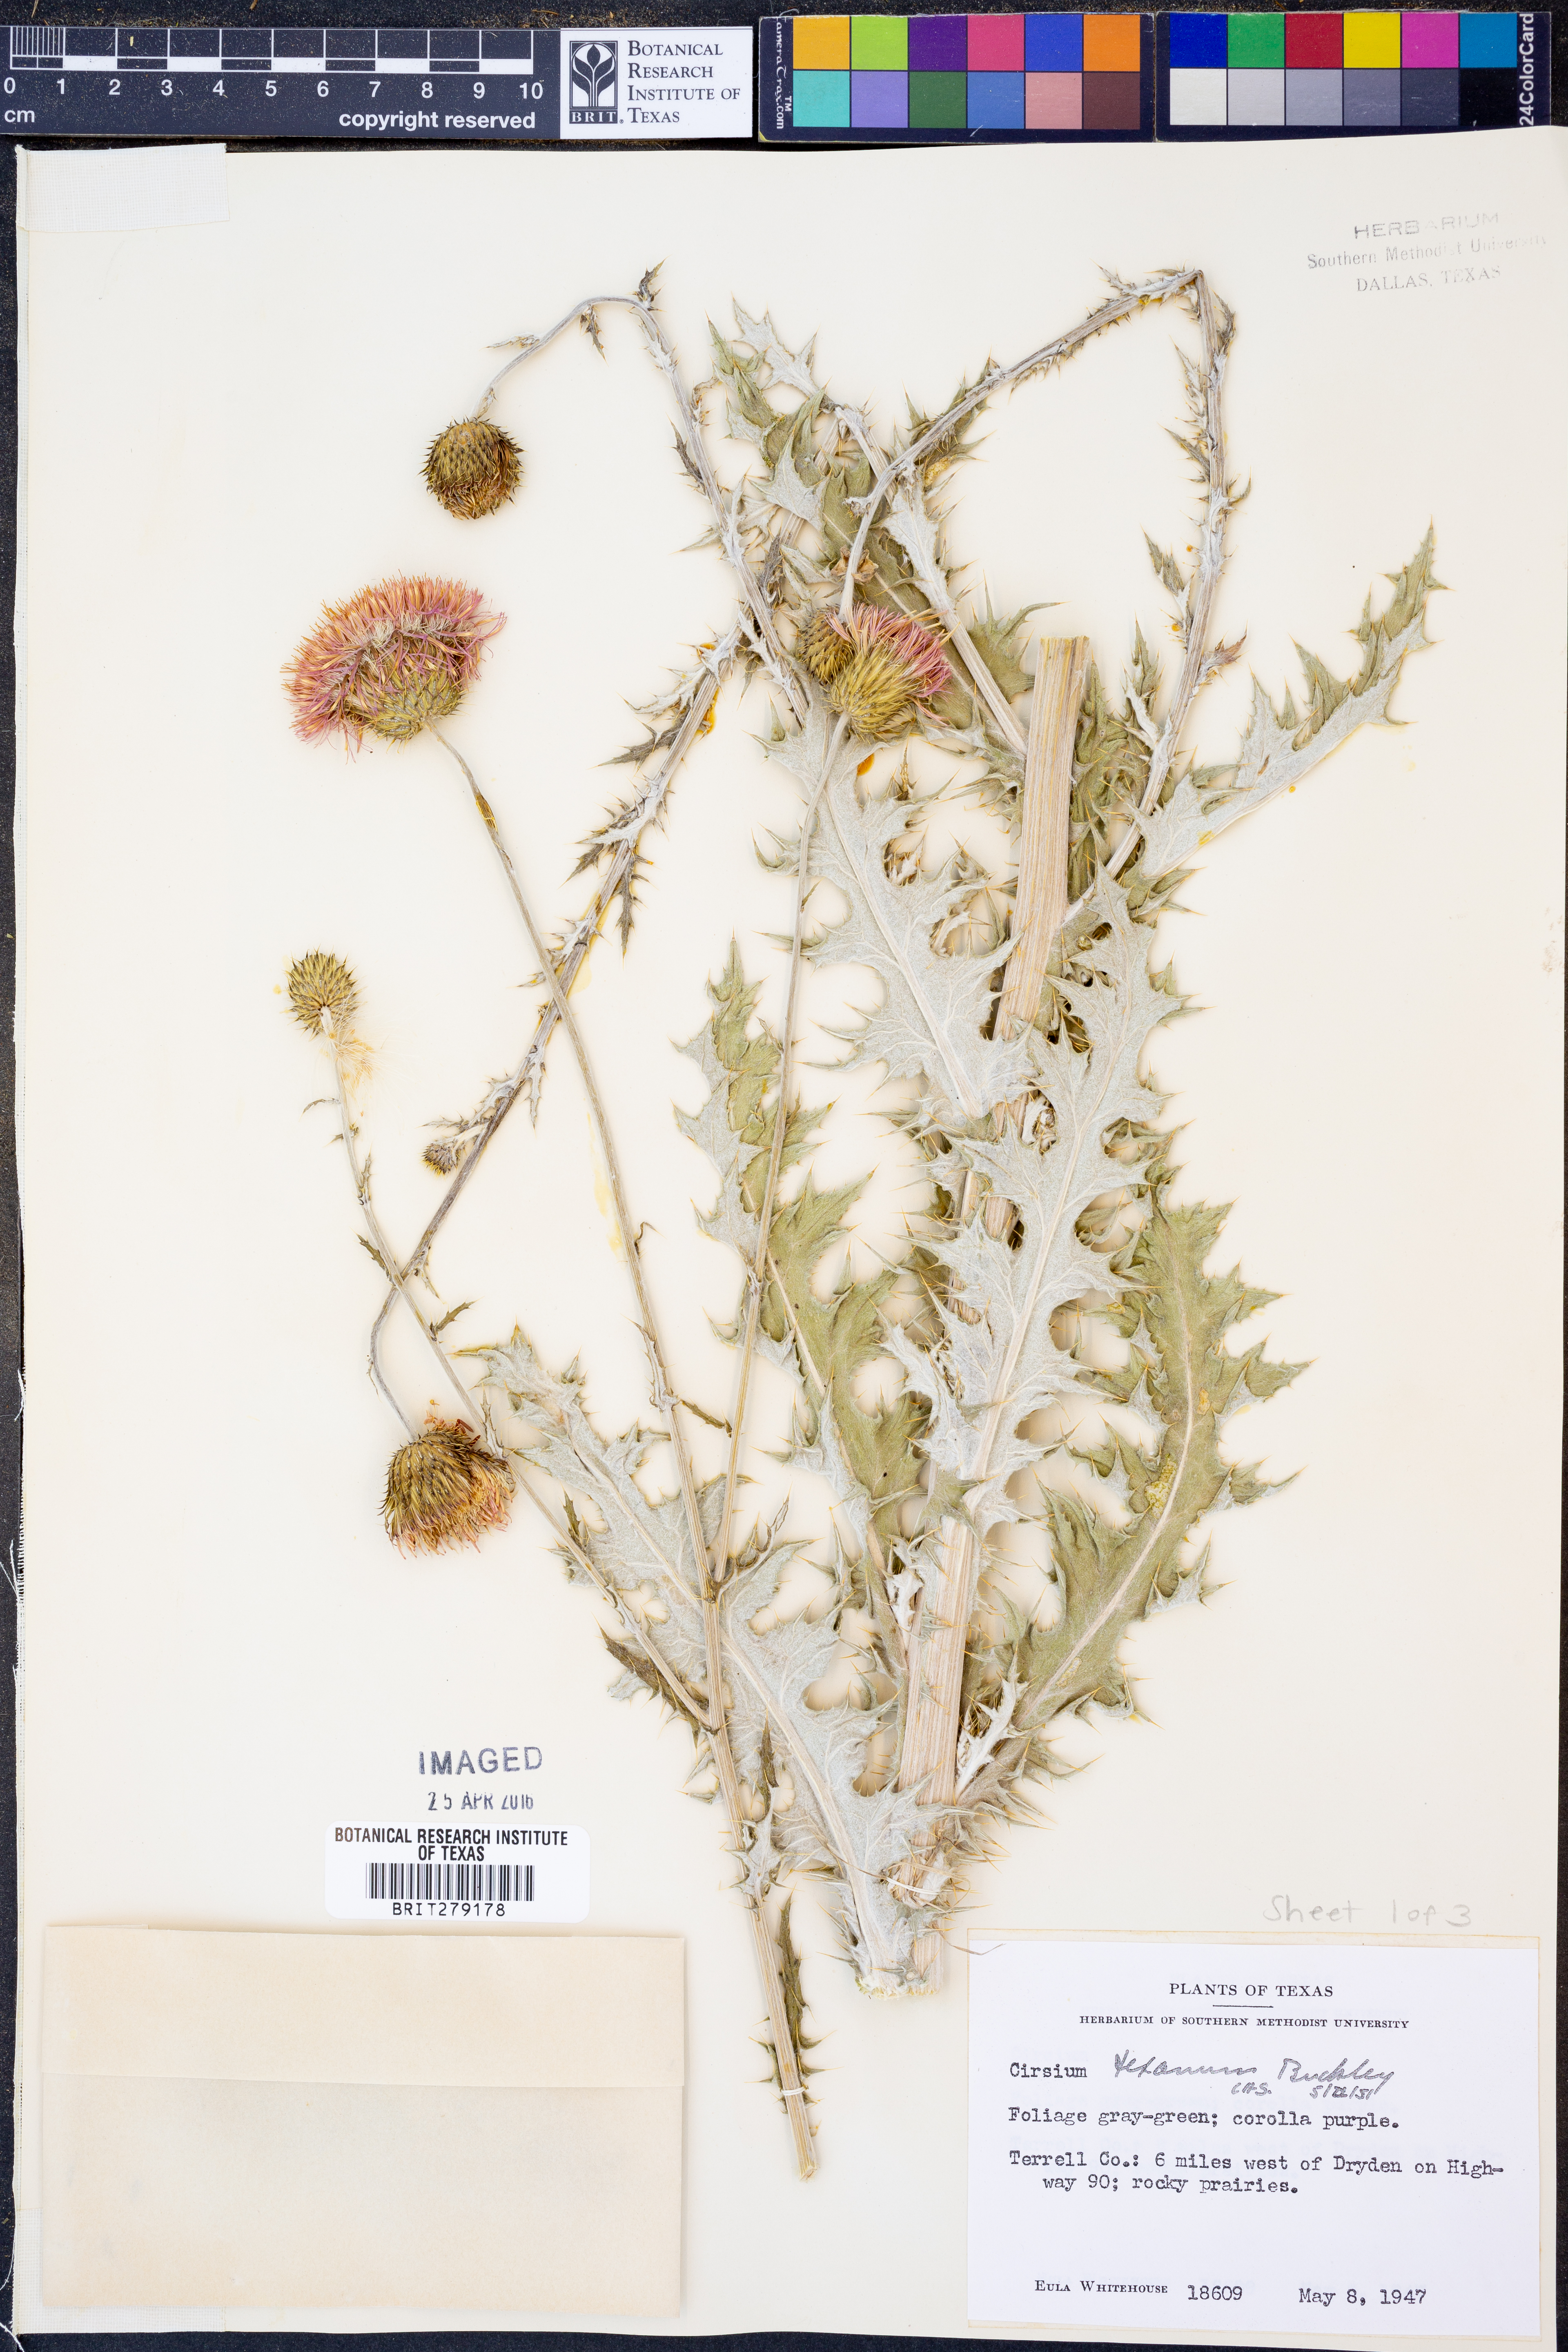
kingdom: Plantae
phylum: Tracheophyta
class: Magnoliopsida
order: Asterales
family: Asteraceae
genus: Cirsium
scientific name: Cirsium texanum
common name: Texas purple thistle
